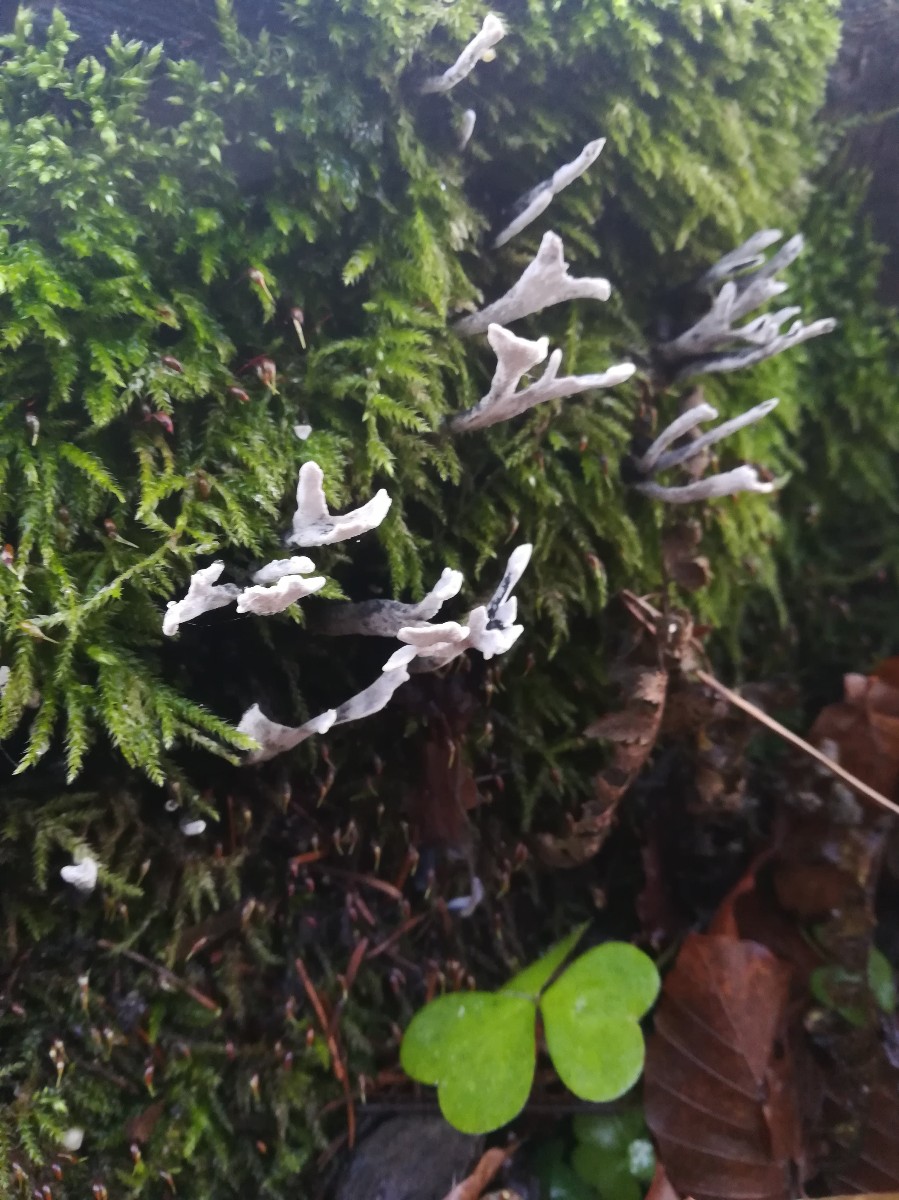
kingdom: Fungi
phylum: Ascomycota
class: Sordariomycetes
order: Xylariales
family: Xylariaceae
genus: Xylaria
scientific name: Xylaria hypoxylon
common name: grenet stødsvamp
